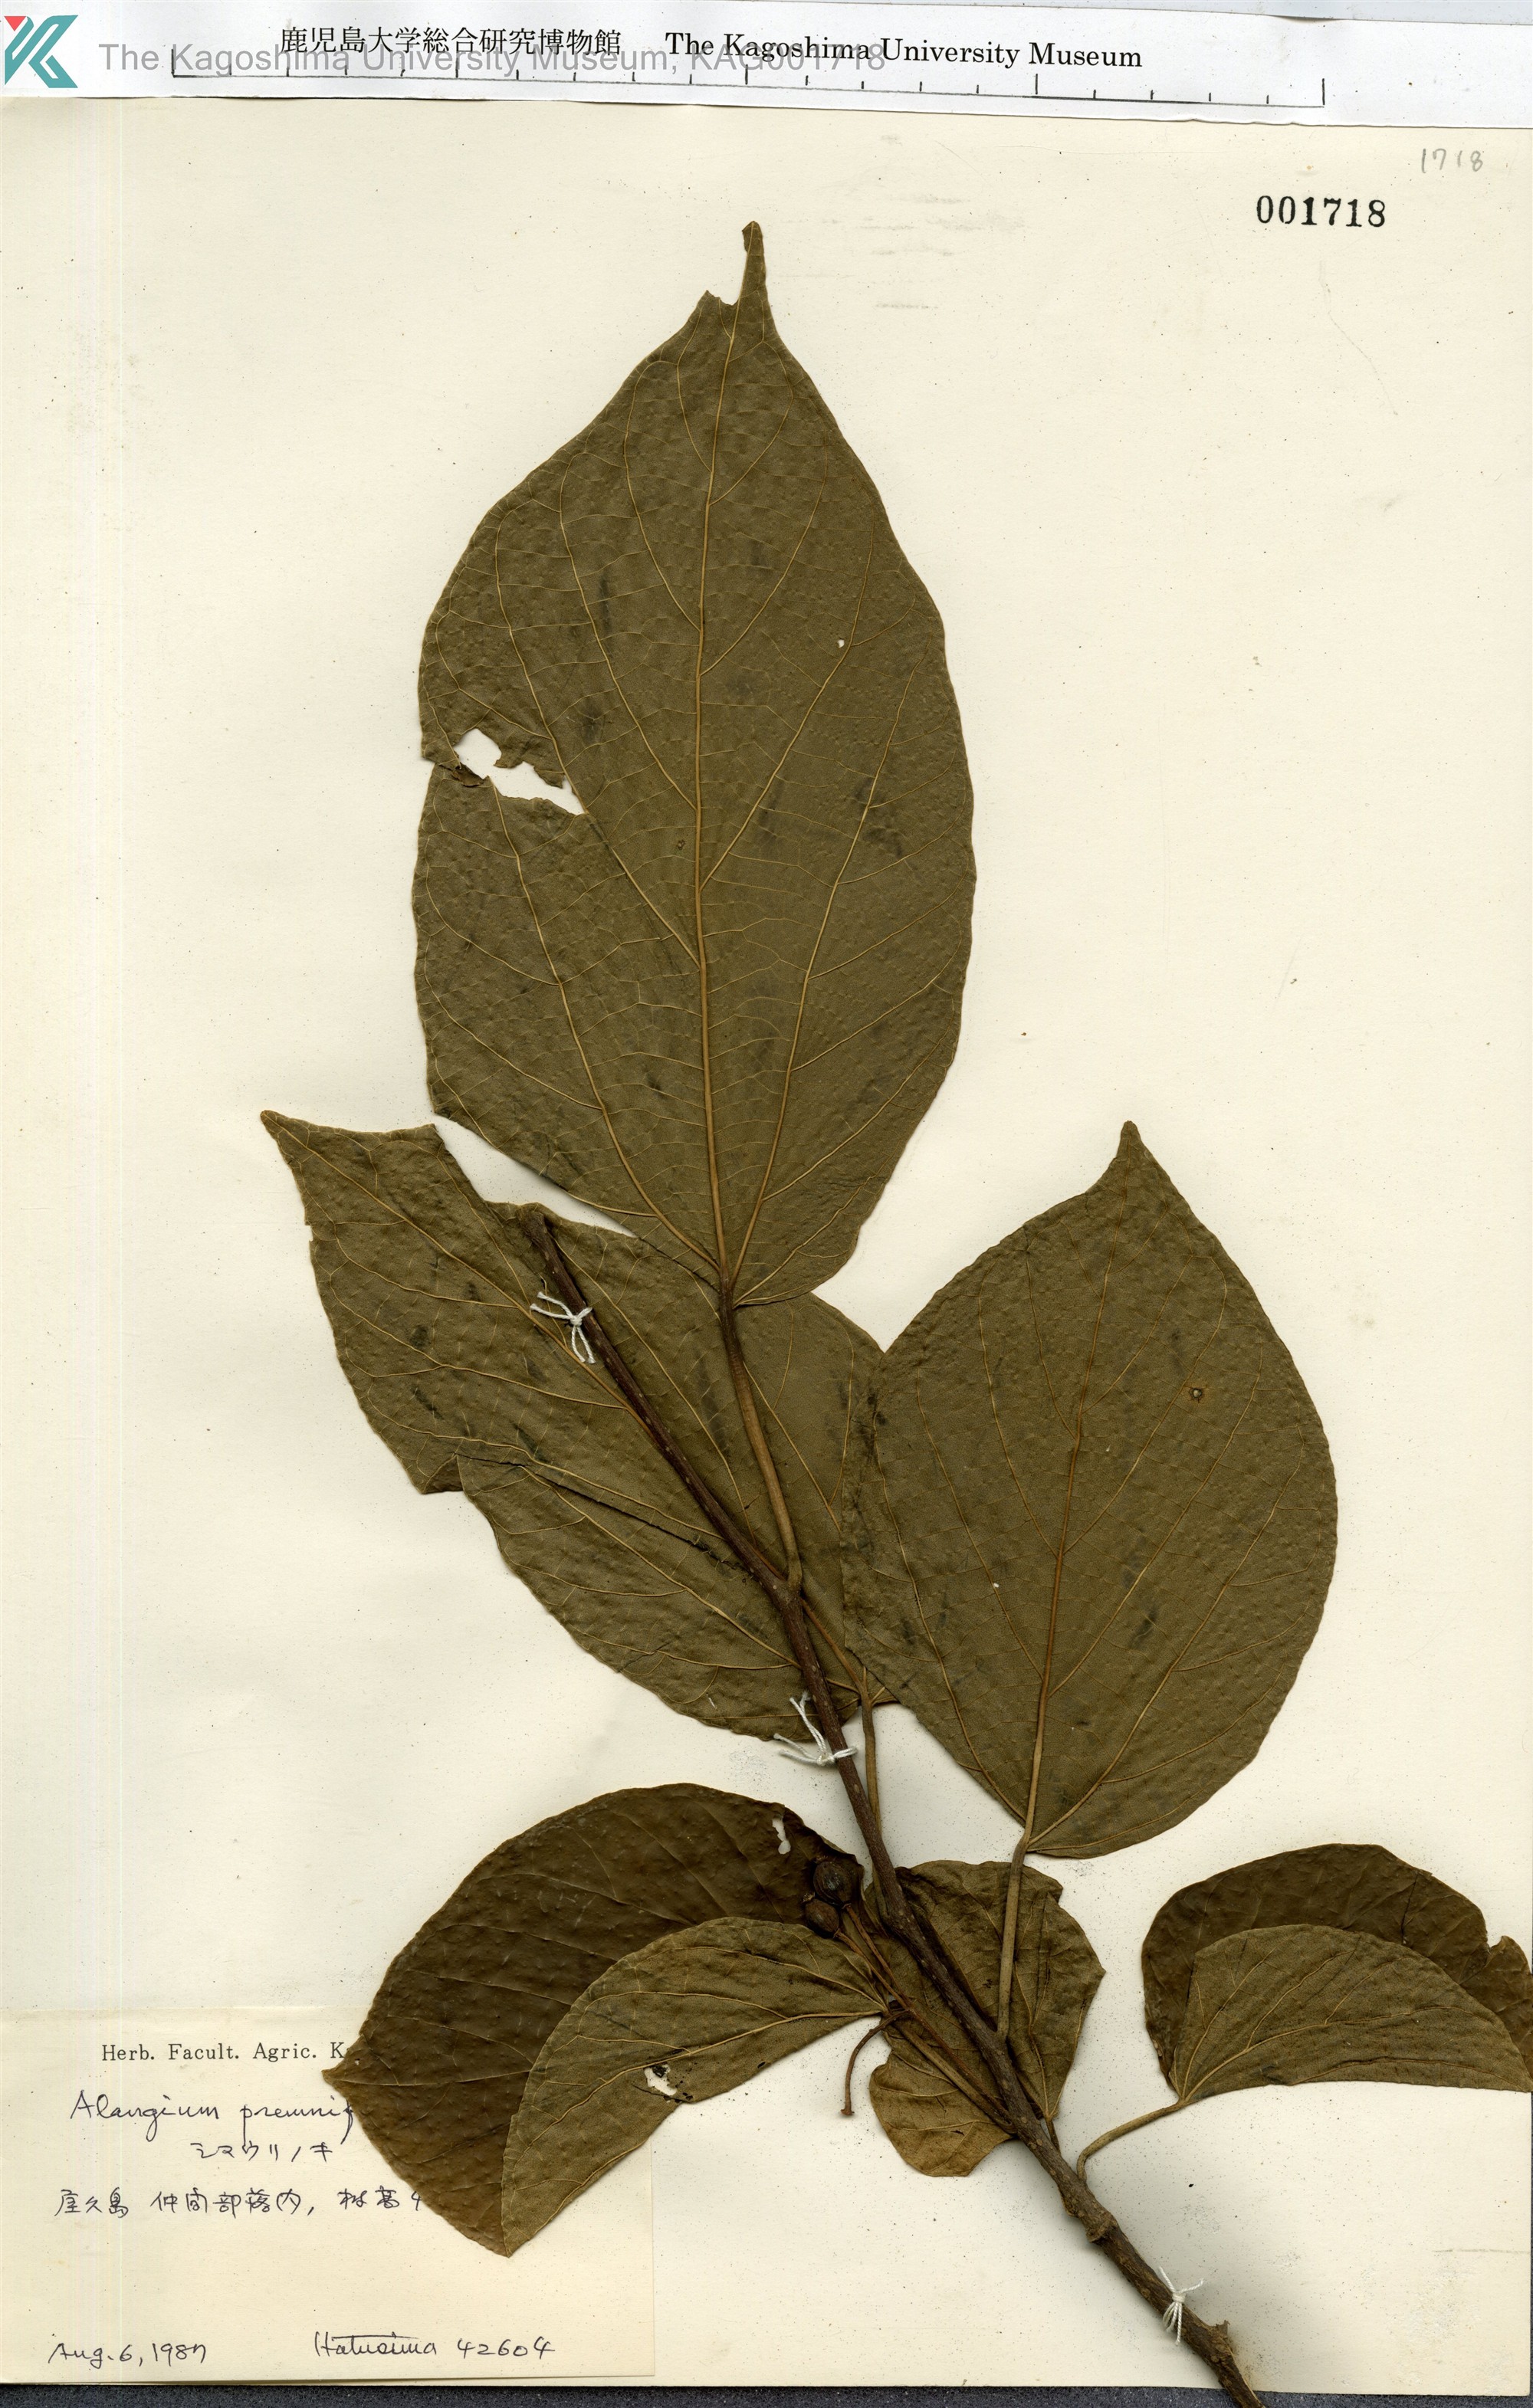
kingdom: Plantae
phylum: Tracheophyta
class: Magnoliopsida
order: Cornales
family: Cornaceae
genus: Alangium
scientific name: Alangium premnifolium
